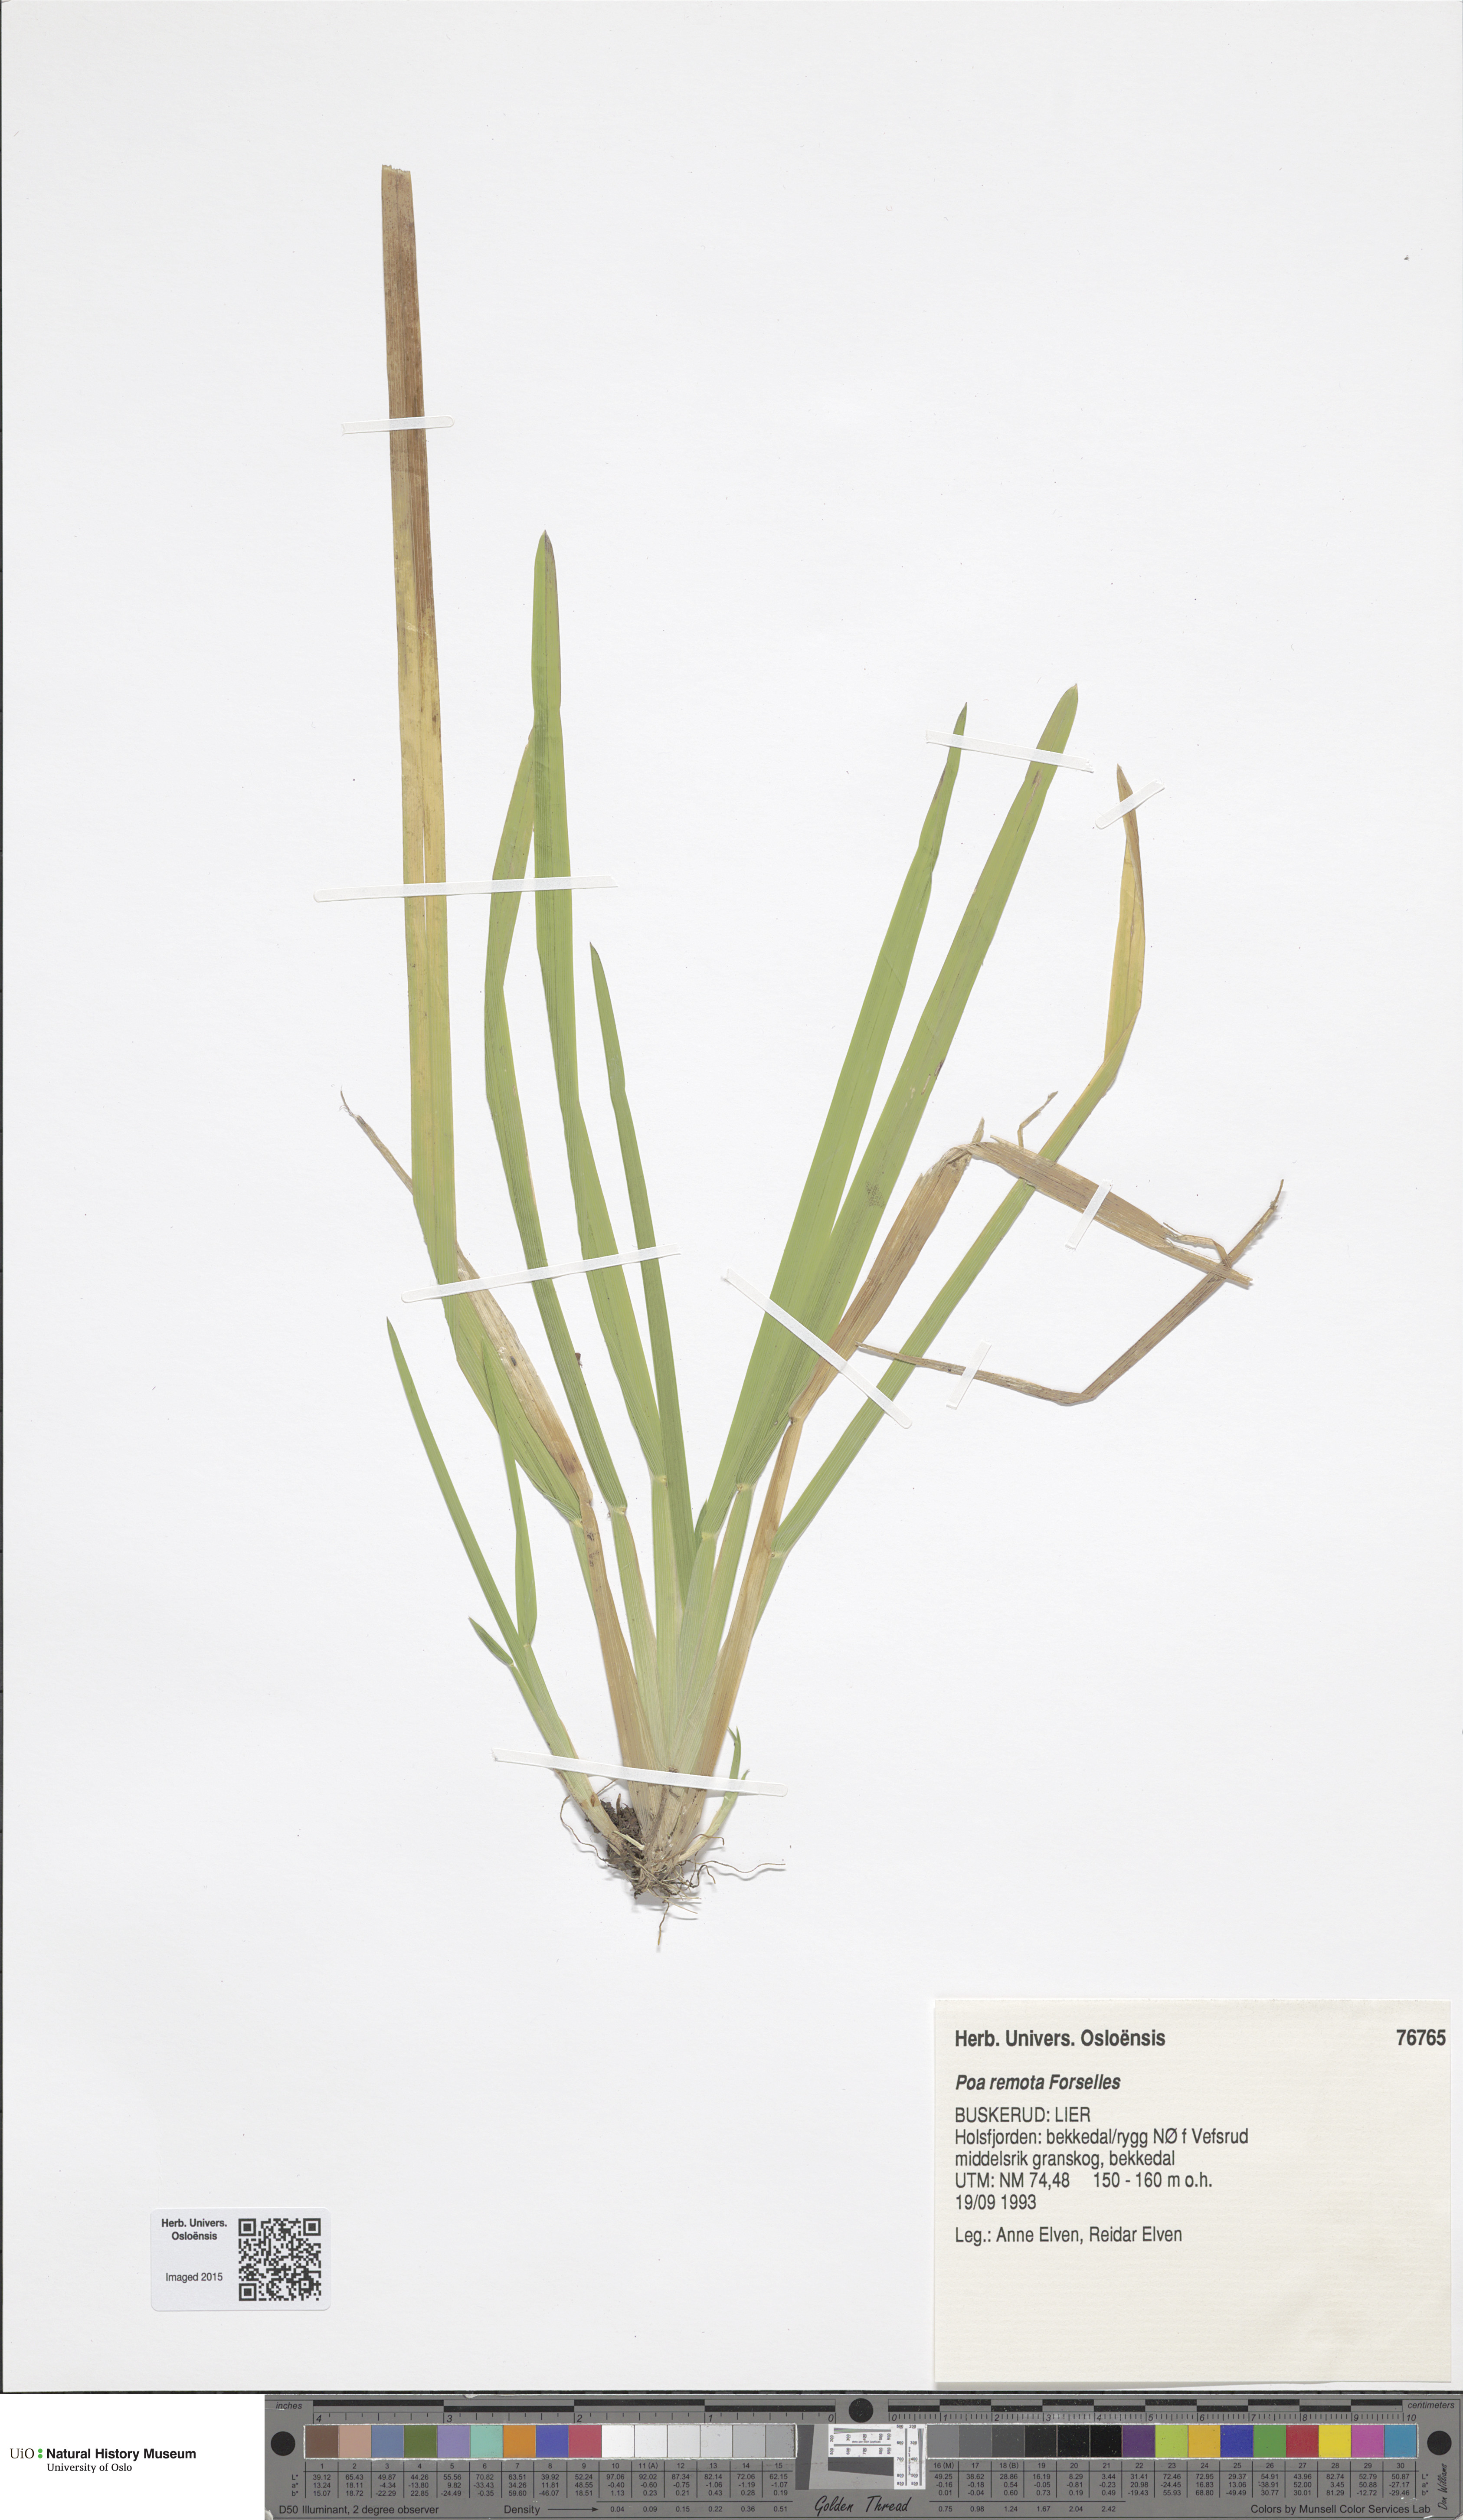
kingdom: Plantae
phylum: Tracheophyta
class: Liliopsida
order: Poales
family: Poaceae
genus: Poa
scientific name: Poa remota
